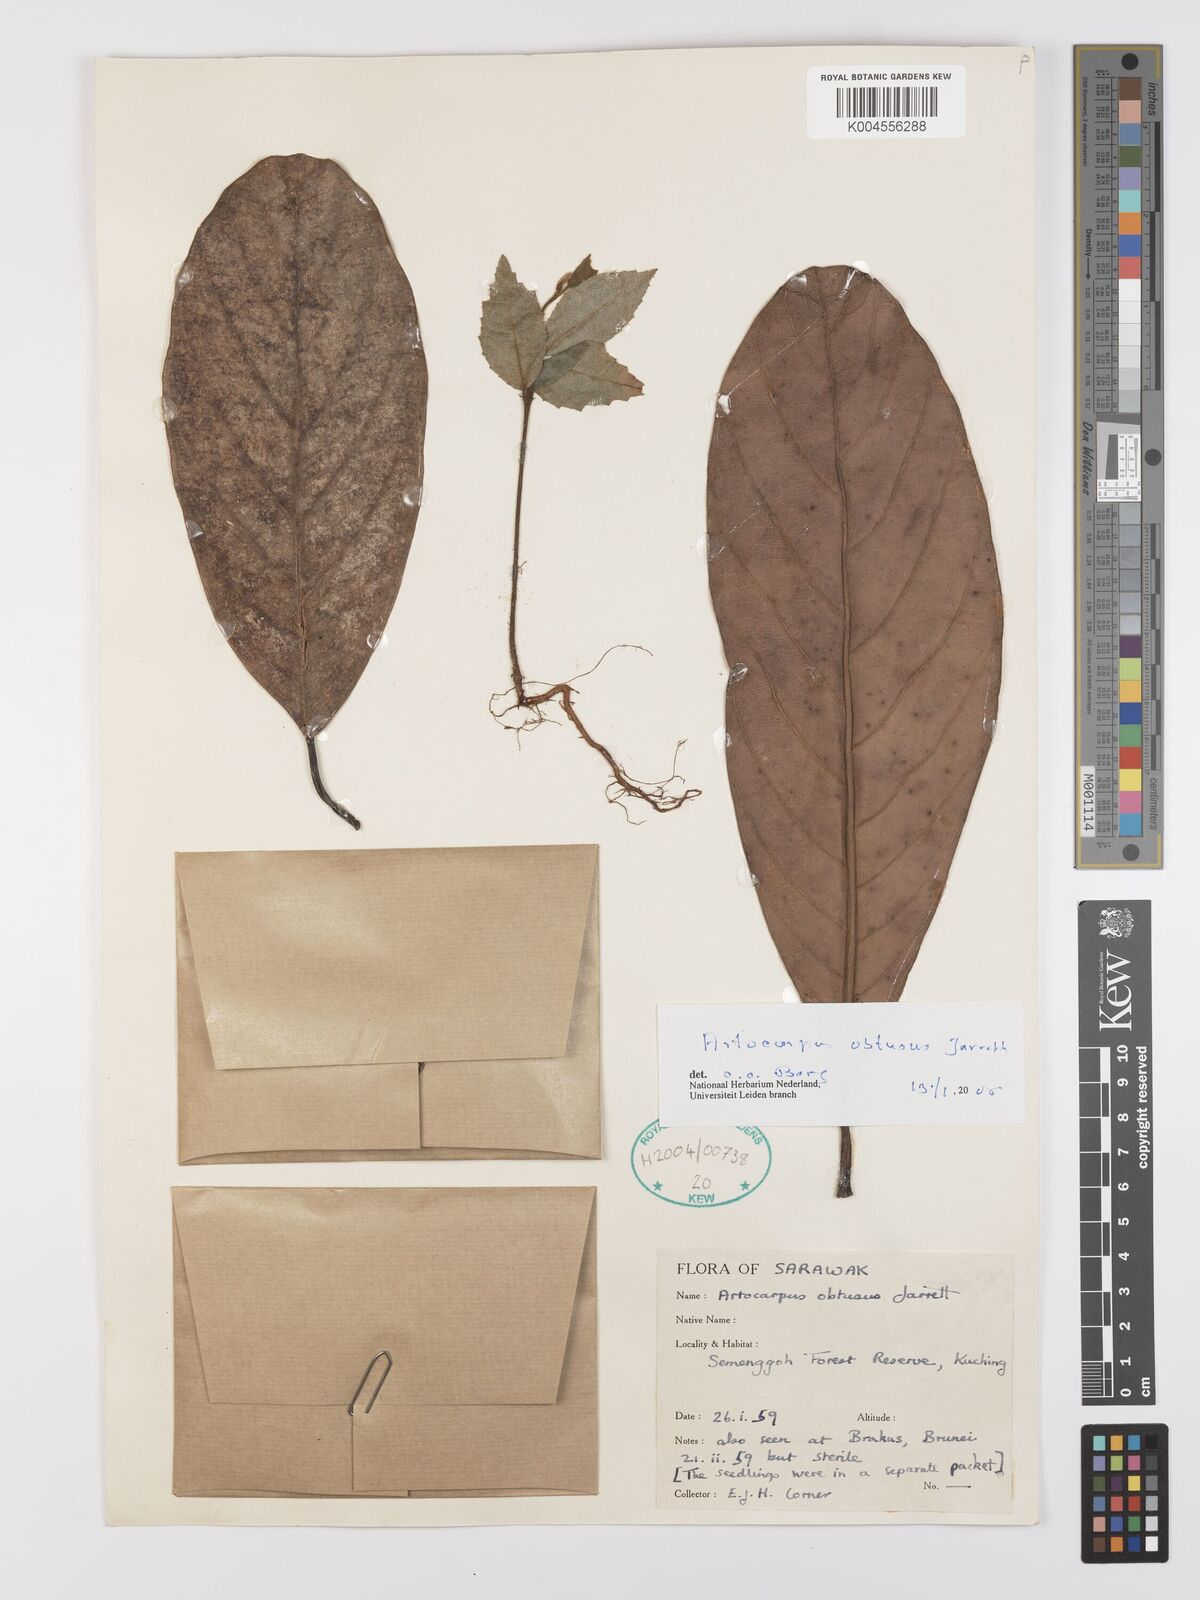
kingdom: Plantae
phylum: Tracheophyta
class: Magnoliopsida
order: Rosales
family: Moraceae
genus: Artocarpus
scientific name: Artocarpus obtusus
